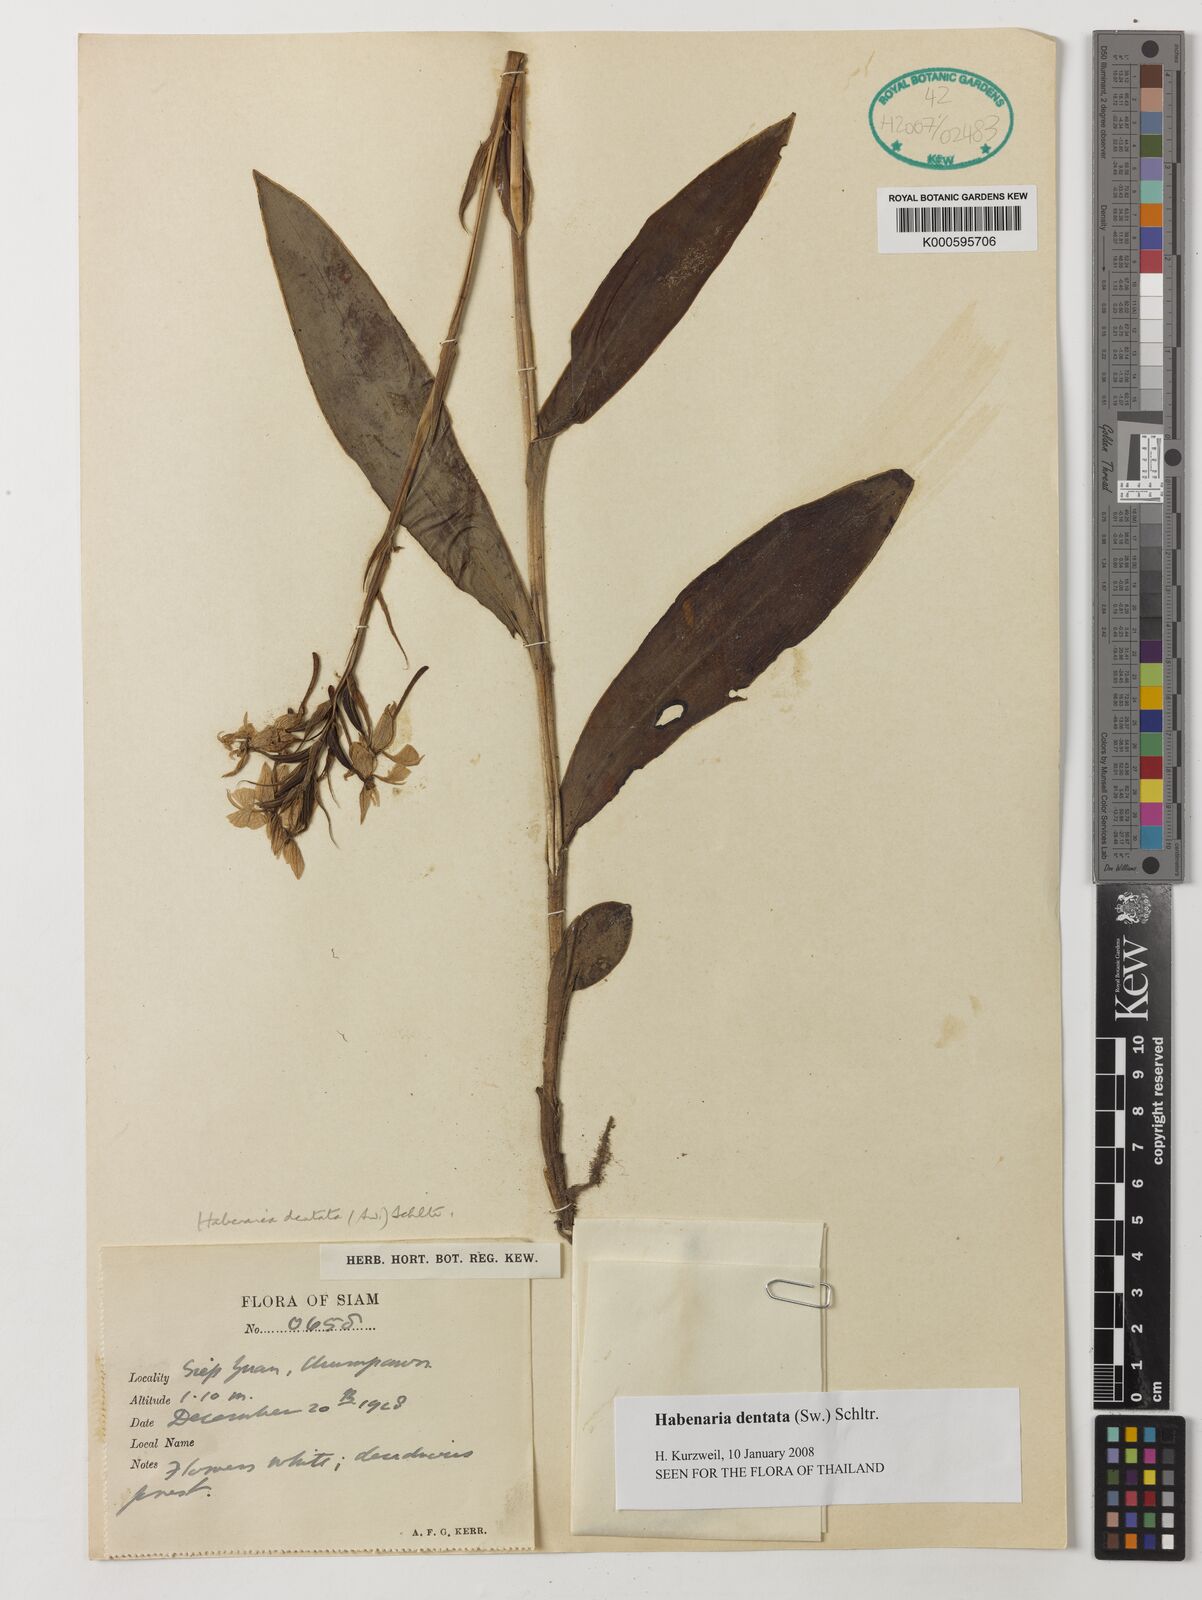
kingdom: Plantae
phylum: Tracheophyta
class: Liliopsida
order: Asparagales
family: Orchidaceae
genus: Habenaria
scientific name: Habenaria dentata
